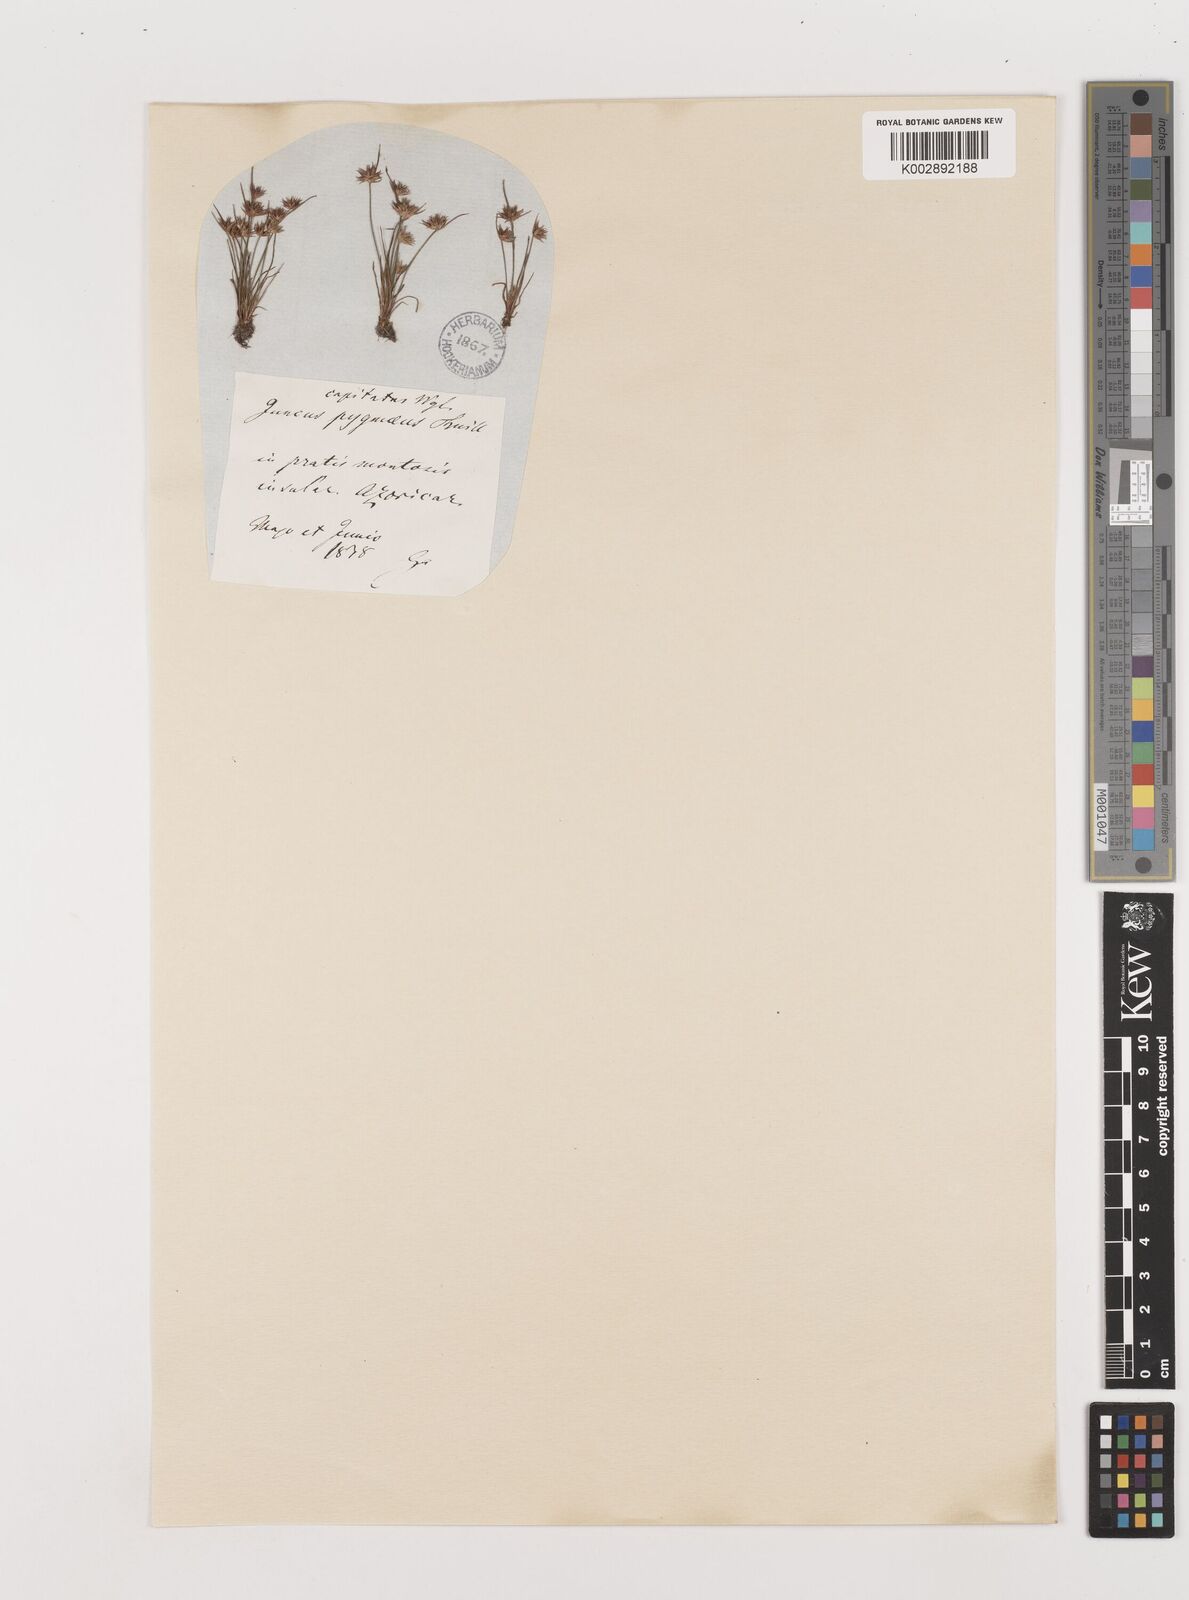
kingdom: Plantae
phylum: Tracheophyta
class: Liliopsida
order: Poales
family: Juncaceae
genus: Juncus
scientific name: Juncus capitatus
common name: Dwarf rush
